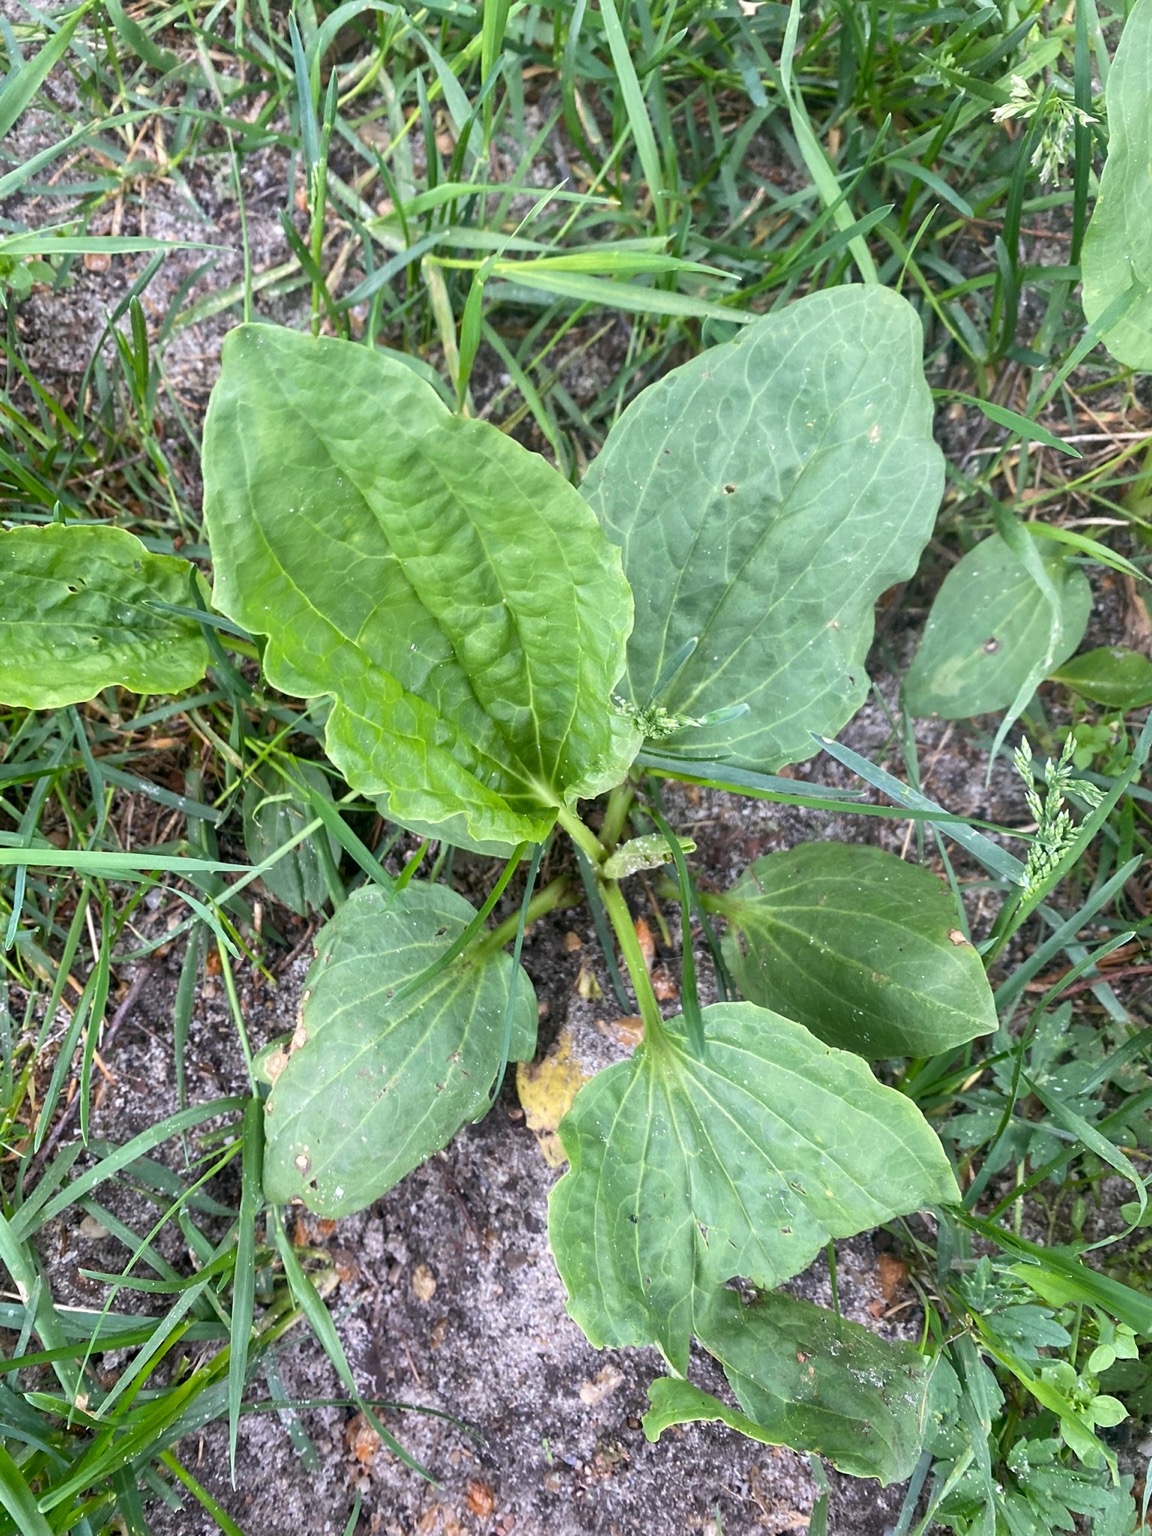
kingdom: Plantae
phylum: Tracheophyta
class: Magnoliopsida
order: Lamiales
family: Plantaginaceae
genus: Plantago
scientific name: Plantago uliginosa
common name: Ager-vejbred
